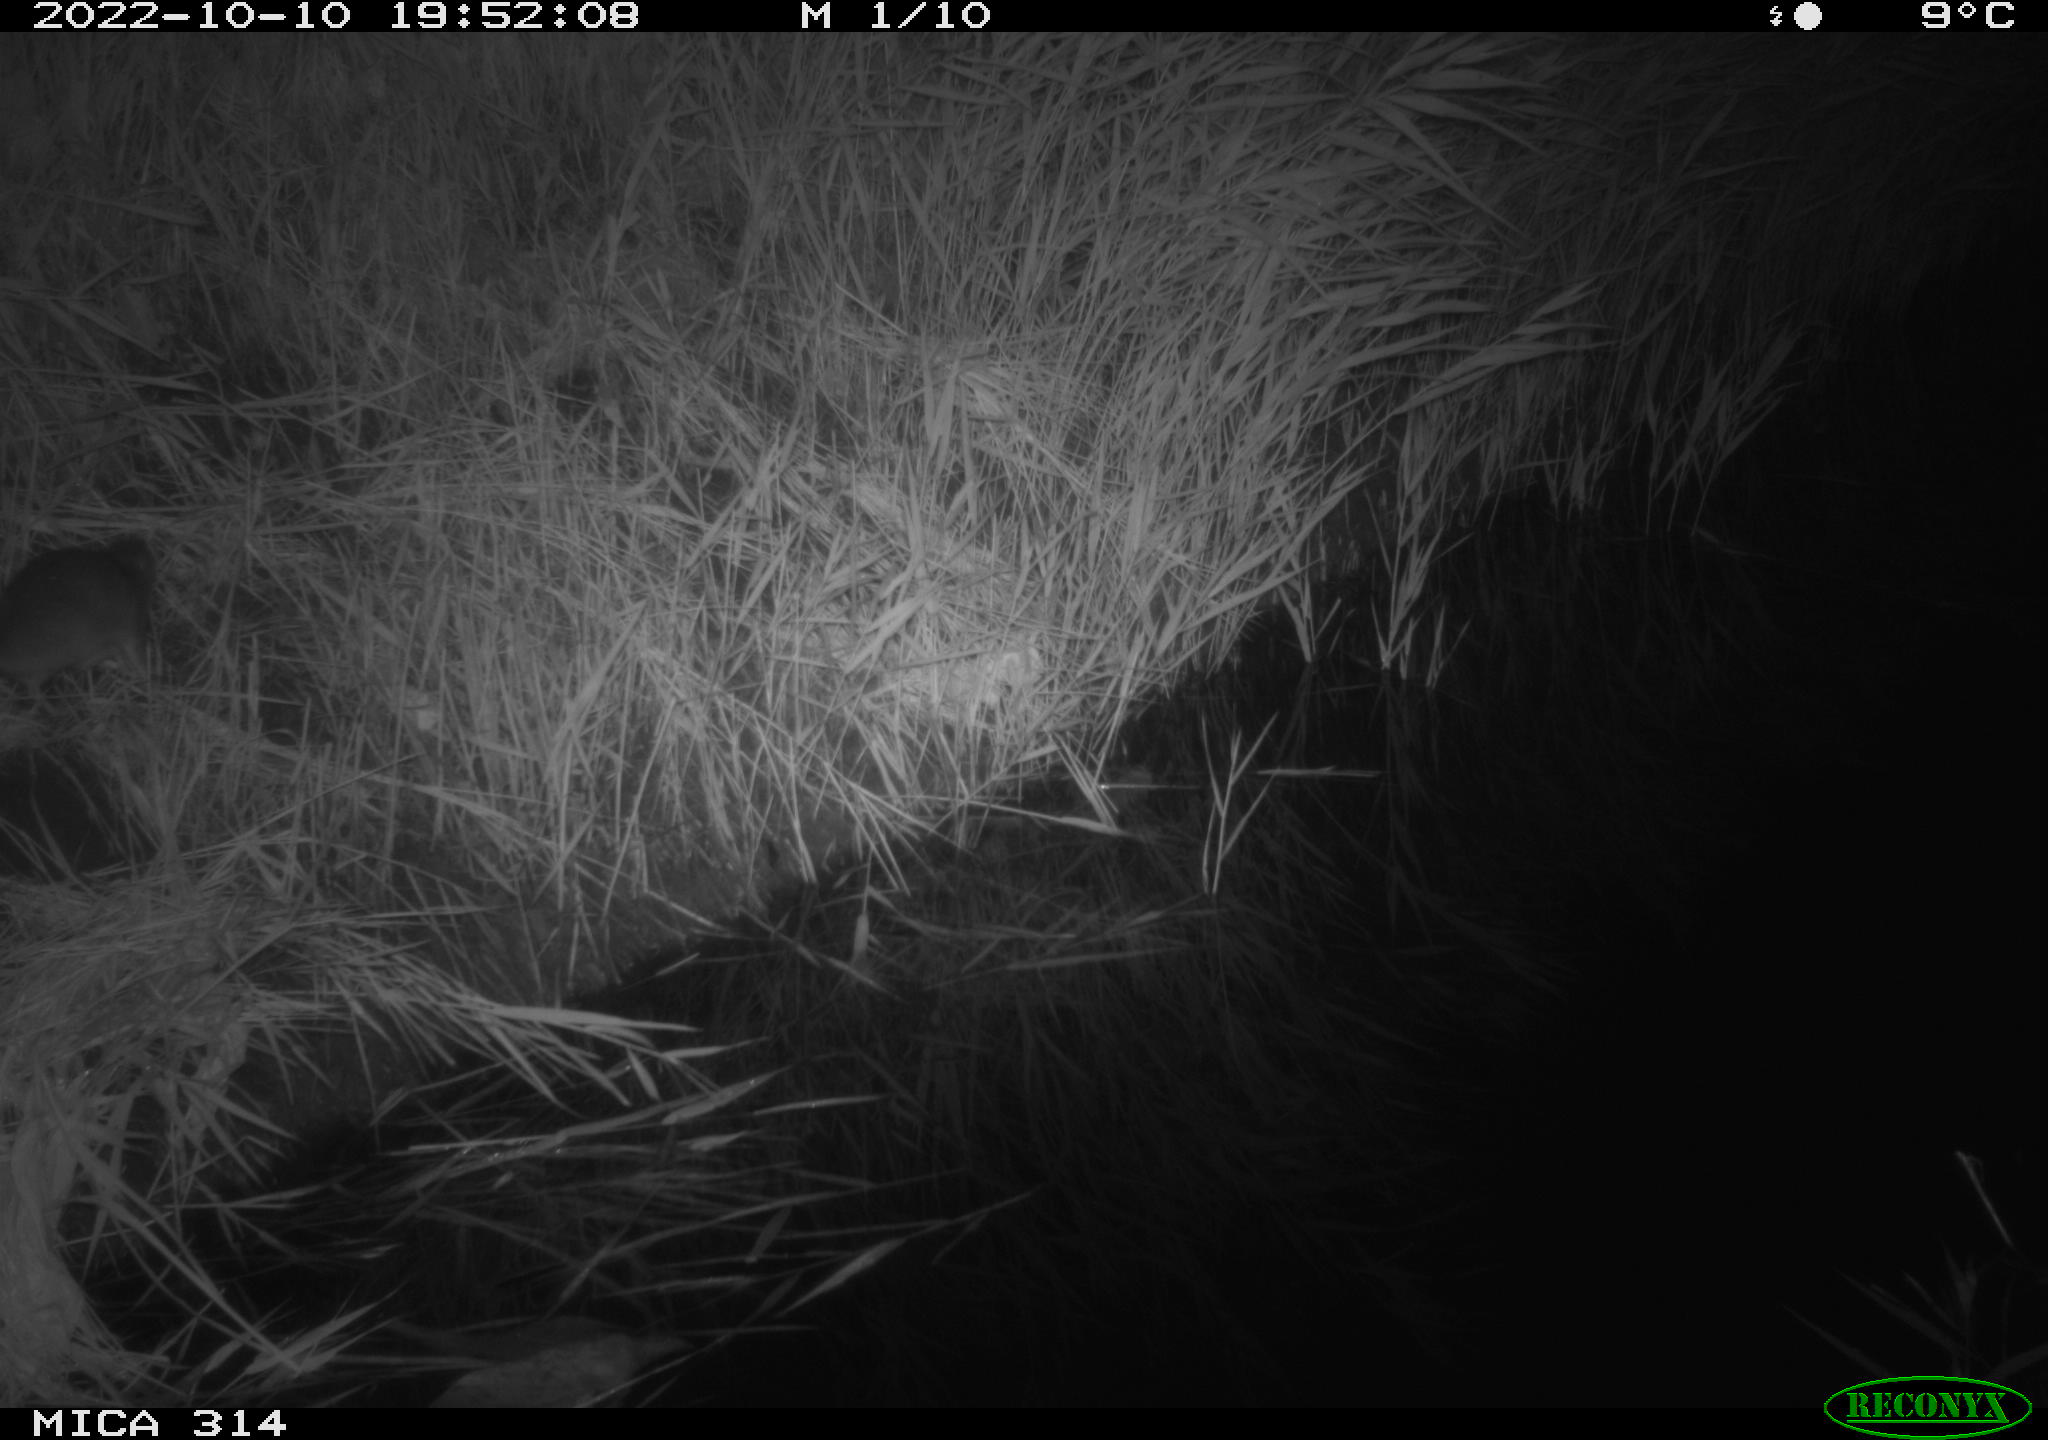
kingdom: Animalia
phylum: Chordata
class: Mammalia
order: Rodentia
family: Muridae
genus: Rattus
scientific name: Rattus norvegicus
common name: Brown rat
